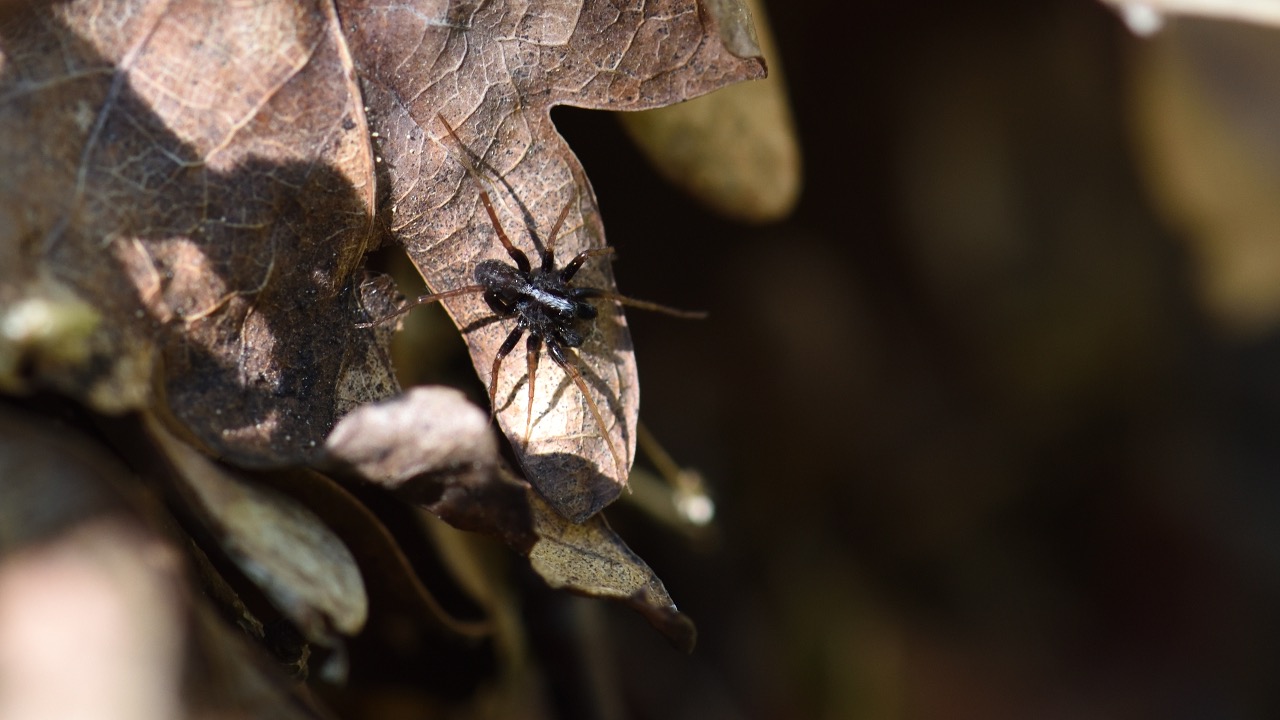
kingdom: Animalia
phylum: Arthropoda
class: Arachnida
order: Araneae
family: Lycosidae
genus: Pardosa
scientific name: Pardosa
